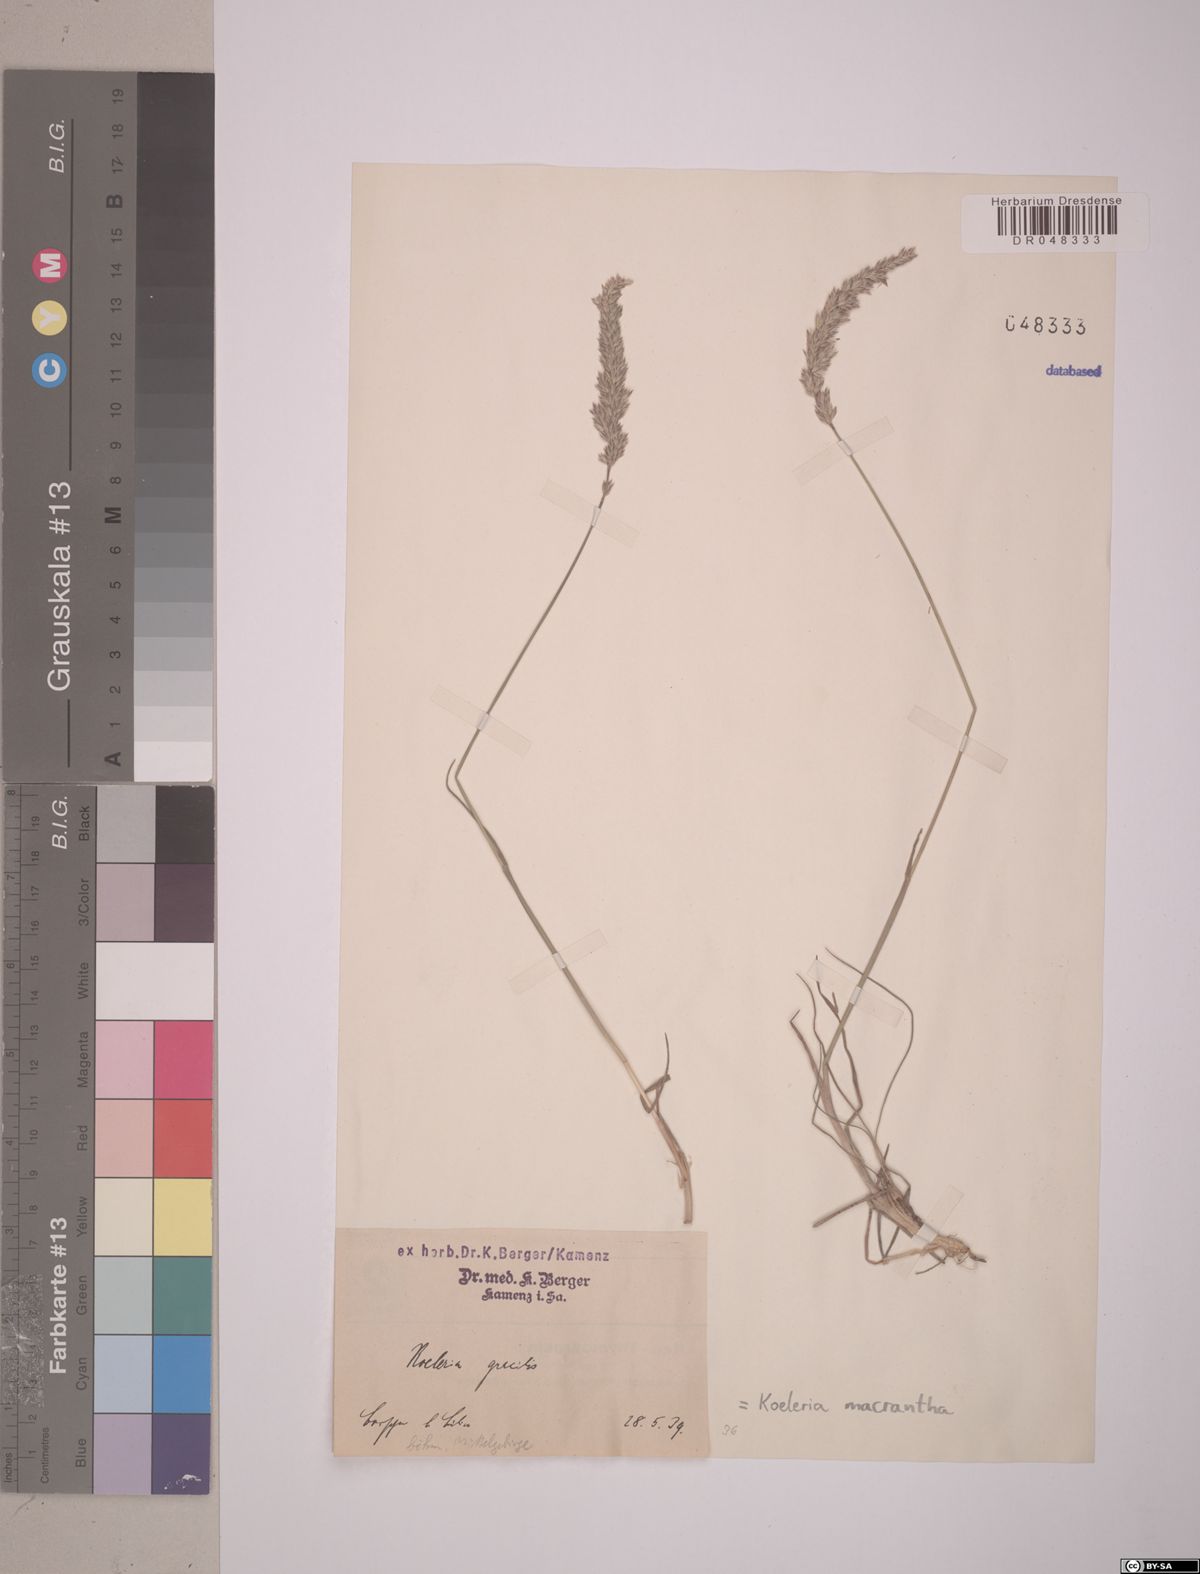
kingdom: Plantae
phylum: Tracheophyta
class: Liliopsida
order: Poales
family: Poaceae
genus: Koeleria
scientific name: Koeleria macrantha
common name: Crested hair-grass
